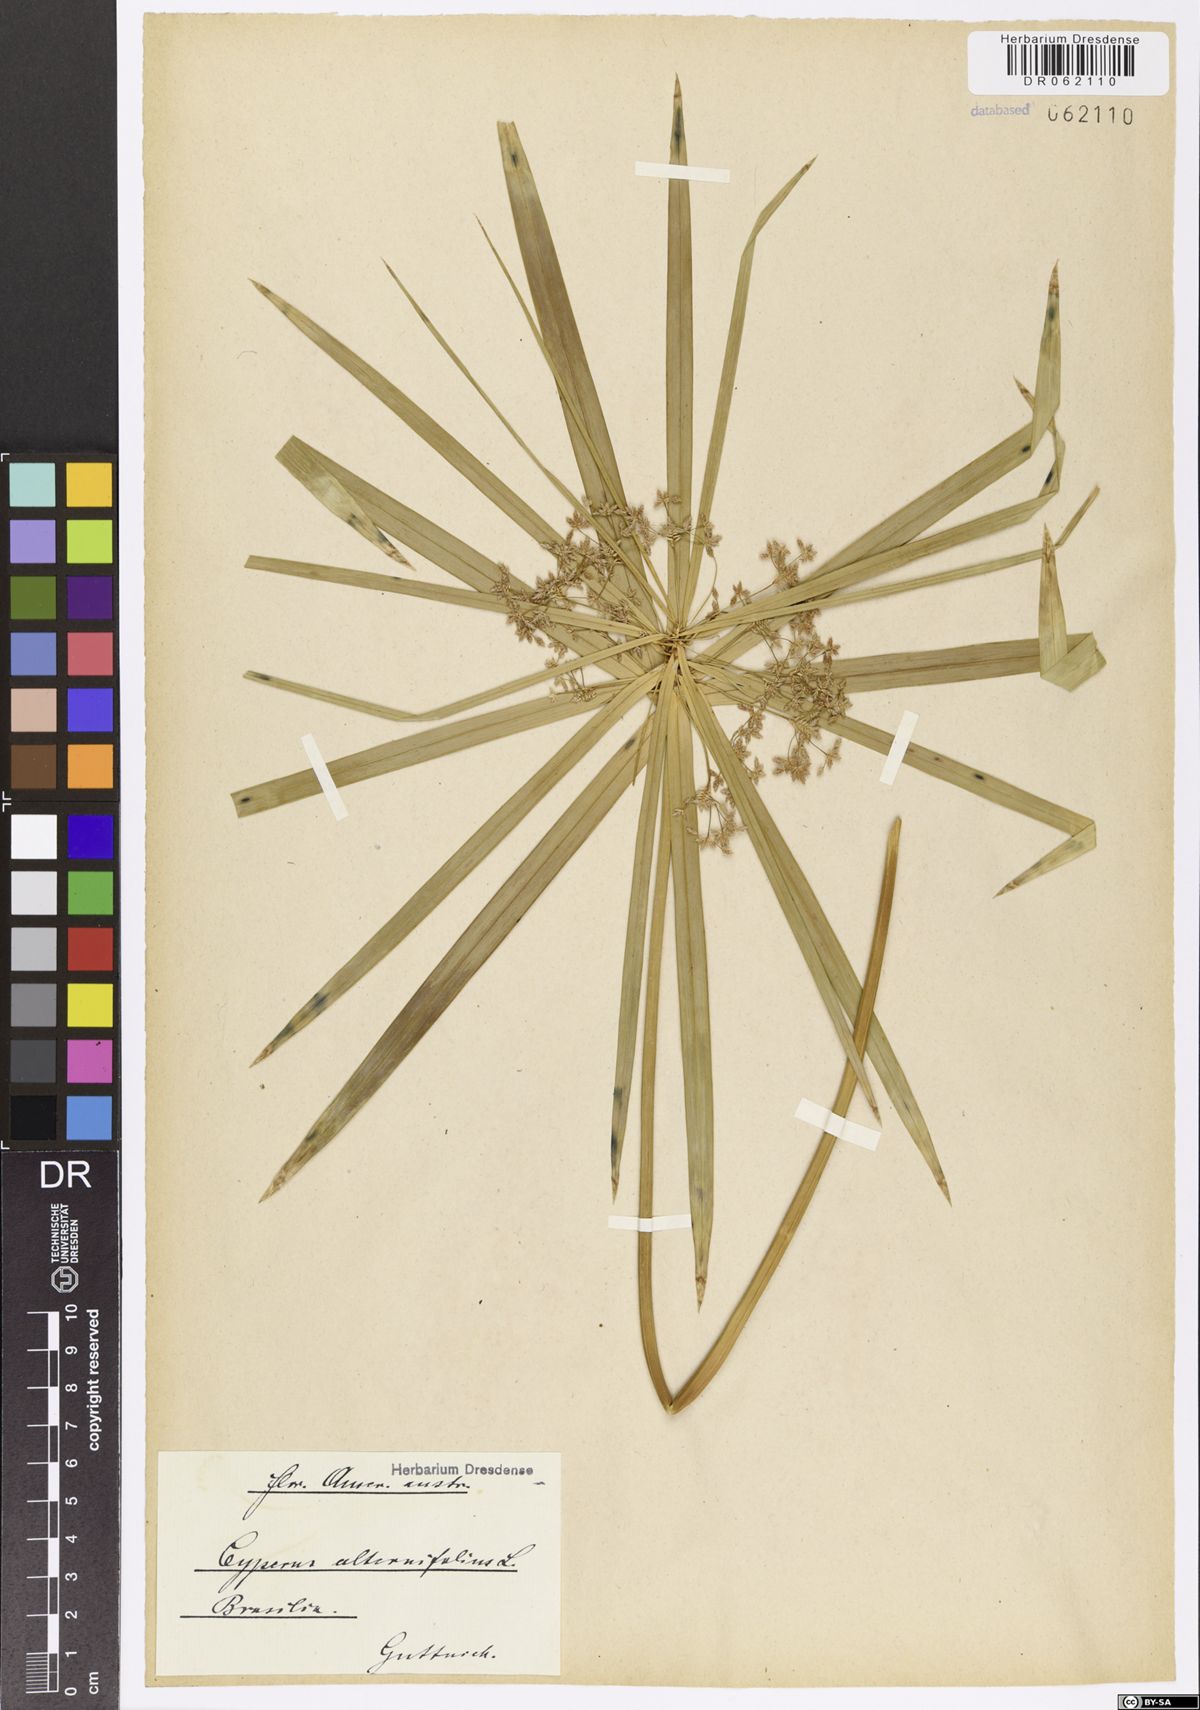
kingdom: Plantae
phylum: Tracheophyta
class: Liliopsida
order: Poales
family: Cyperaceae
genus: Cyperus
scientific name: Cyperus alternifolius
